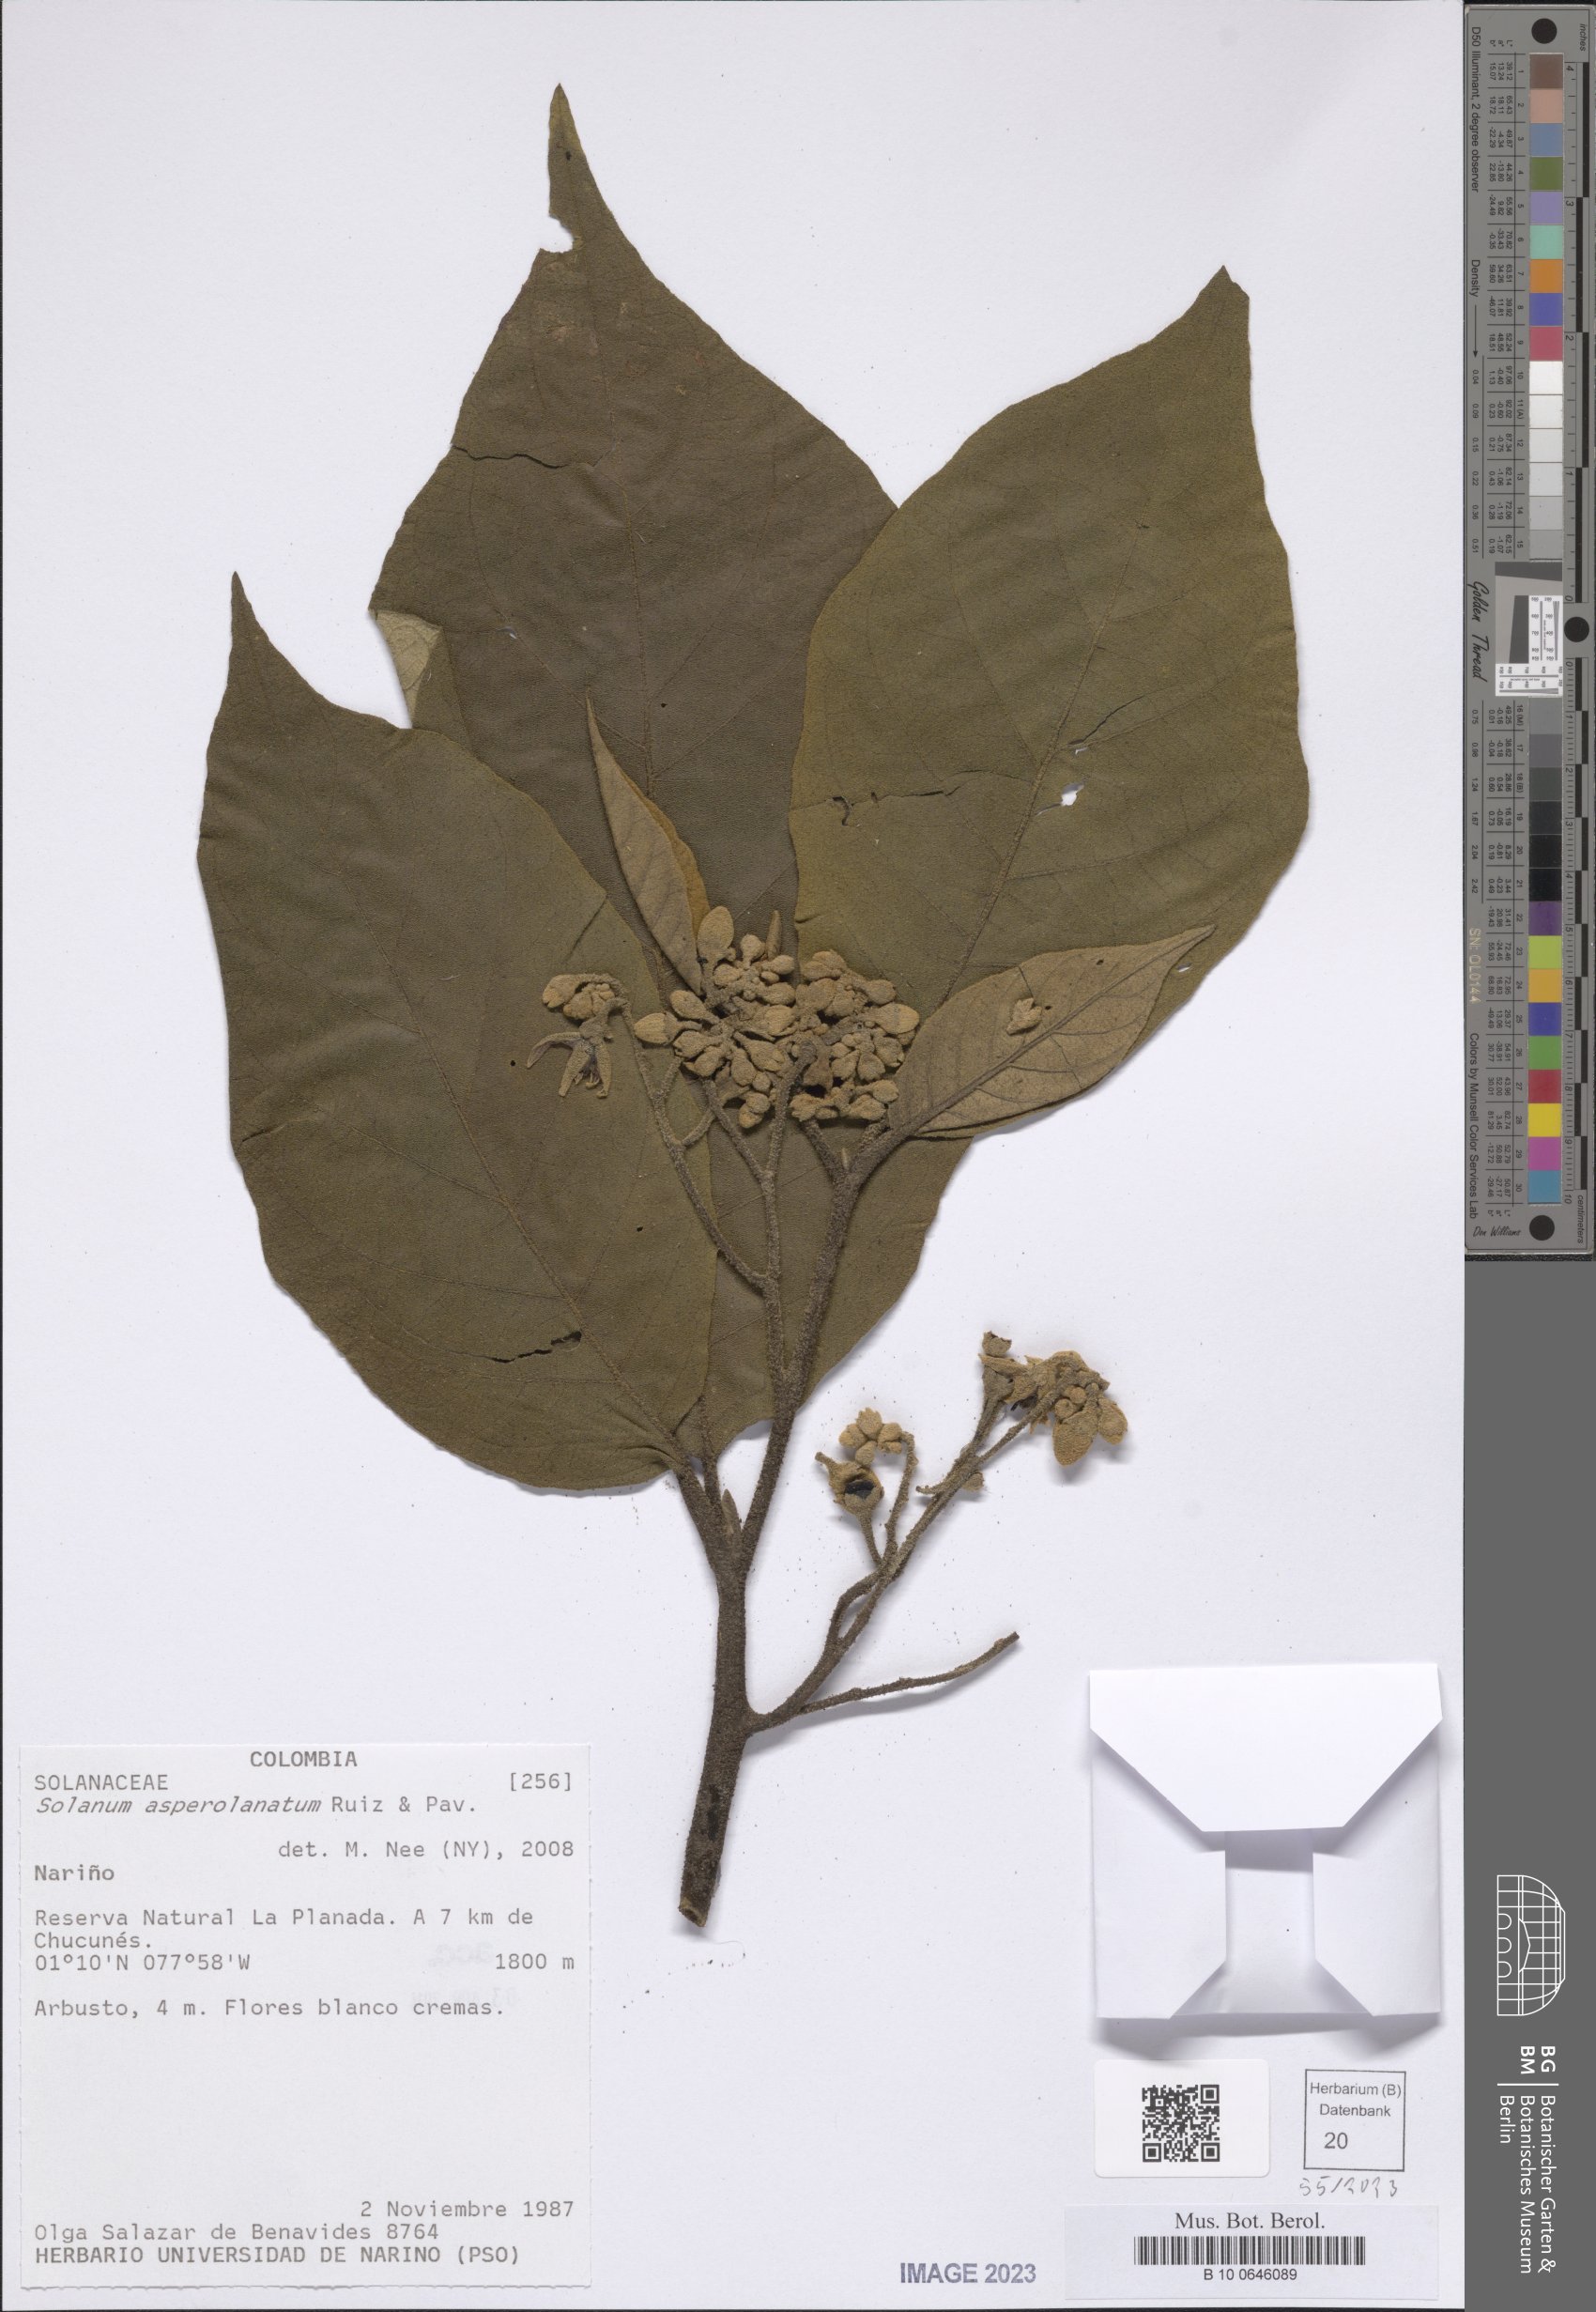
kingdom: Plantae
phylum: Tracheophyta
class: Magnoliopsida
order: Solanales
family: Solanaceae
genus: Solanum
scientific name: Solanum asperolanatum
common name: Devil's-fig
